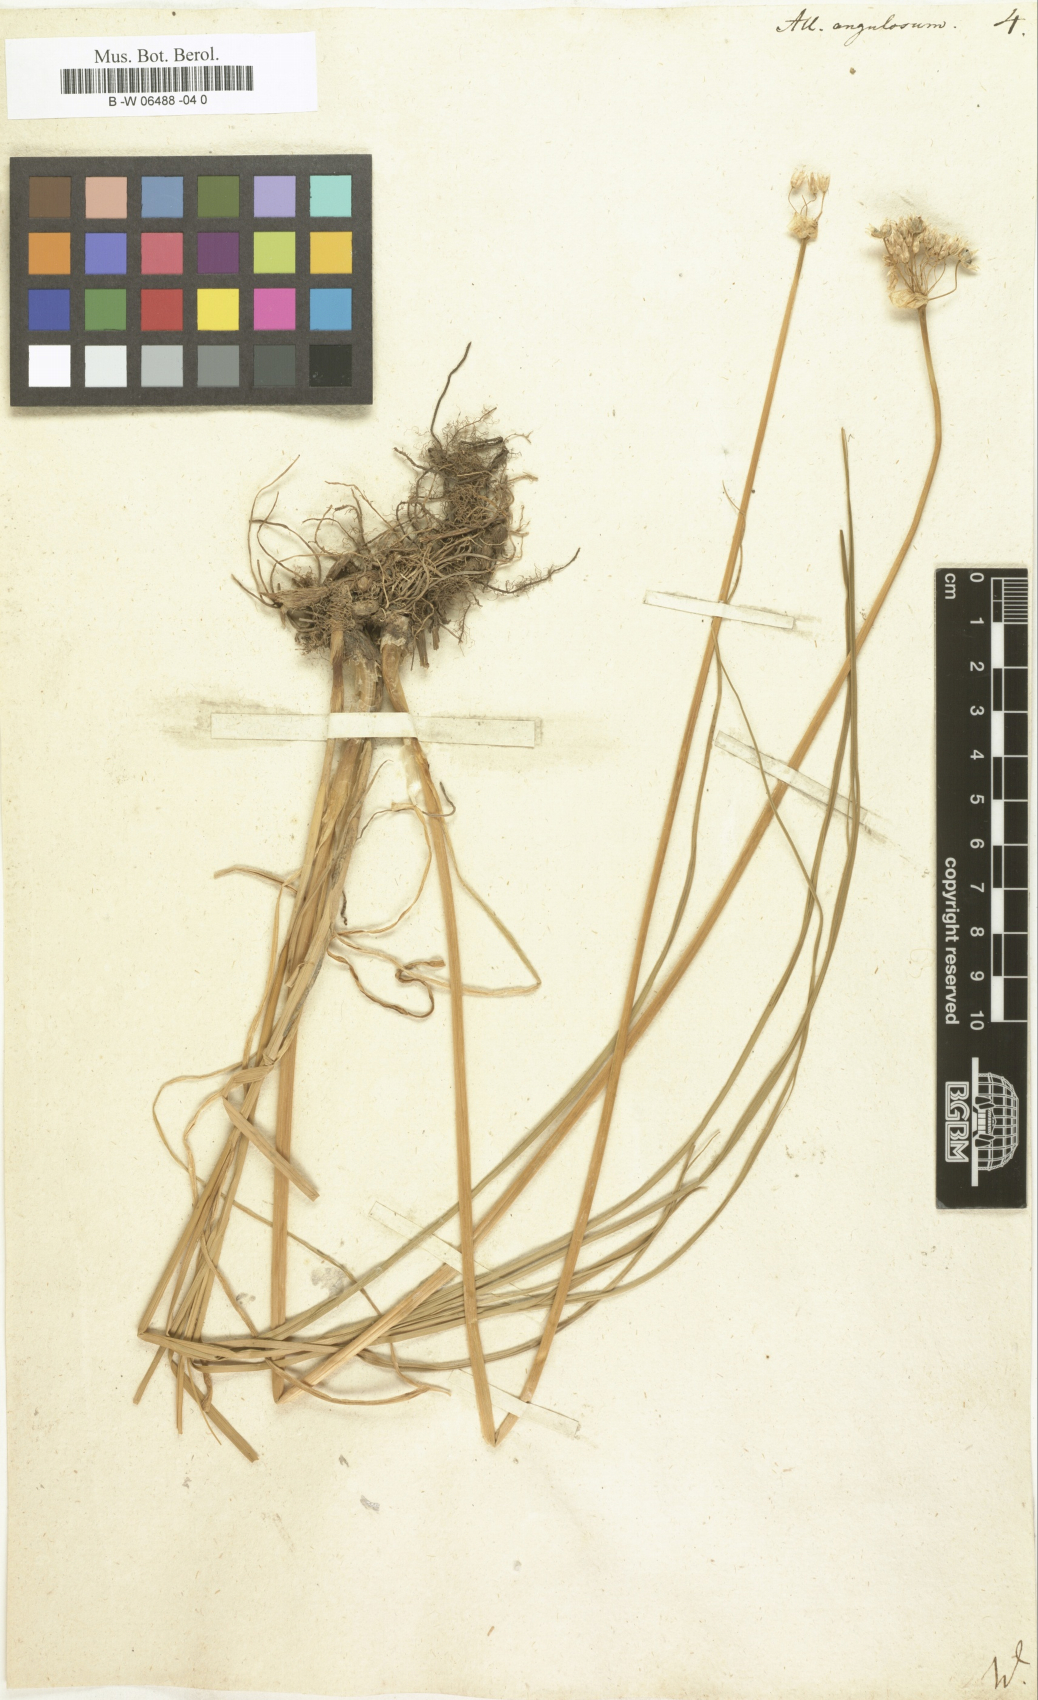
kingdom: Plantae
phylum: Tracheophyta
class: Liliopsida
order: Asparagales
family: Amaryllidaceae
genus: Allium
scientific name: Allium angulosum
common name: Mouse garlic
